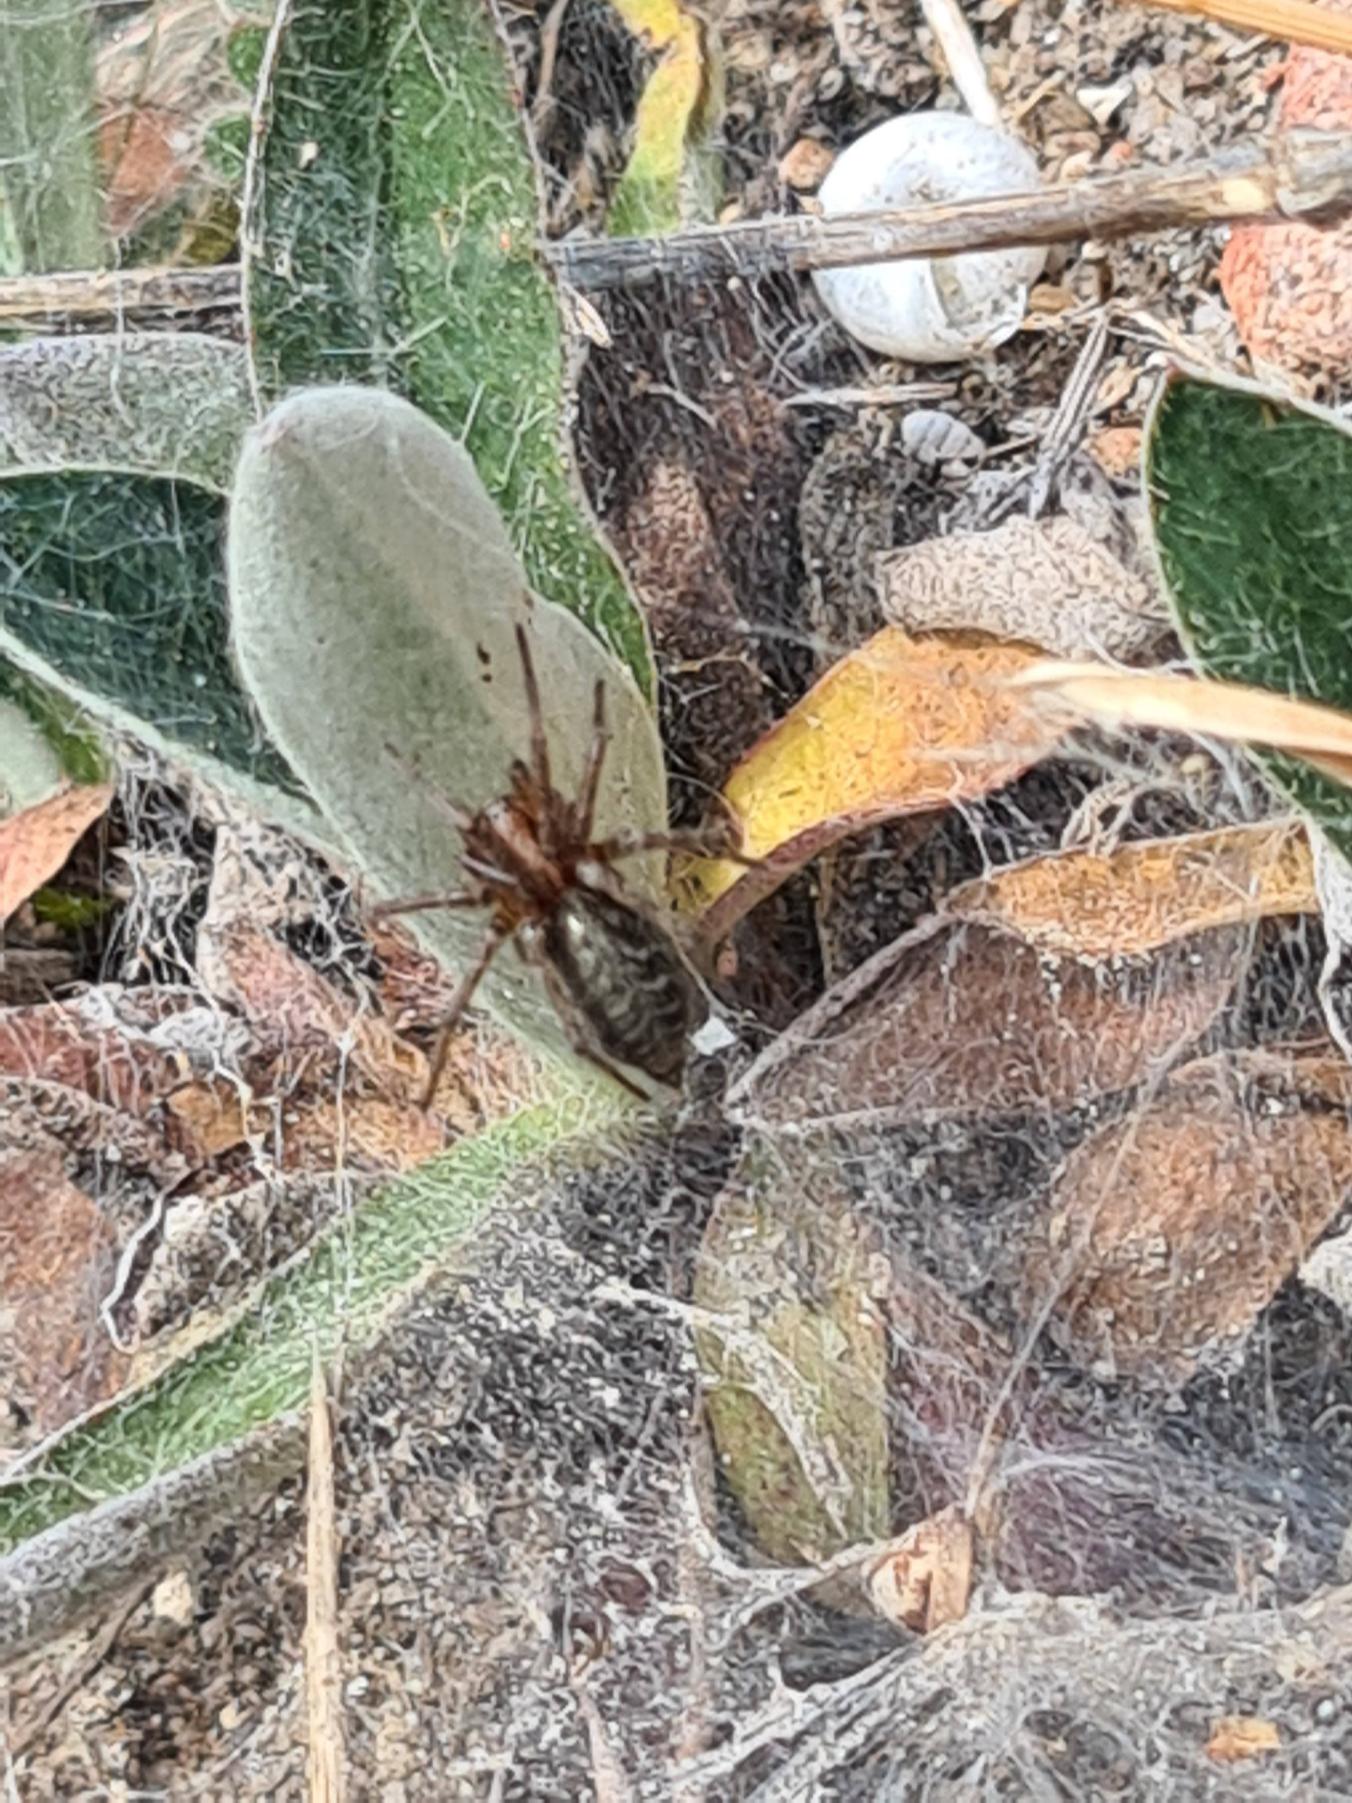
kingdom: Animalia
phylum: Arthropoda
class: Arachnida
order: Araneae
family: Agelenidae
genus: Agelena
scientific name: Agelena labyrinthica
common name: Labyrintedderkop
